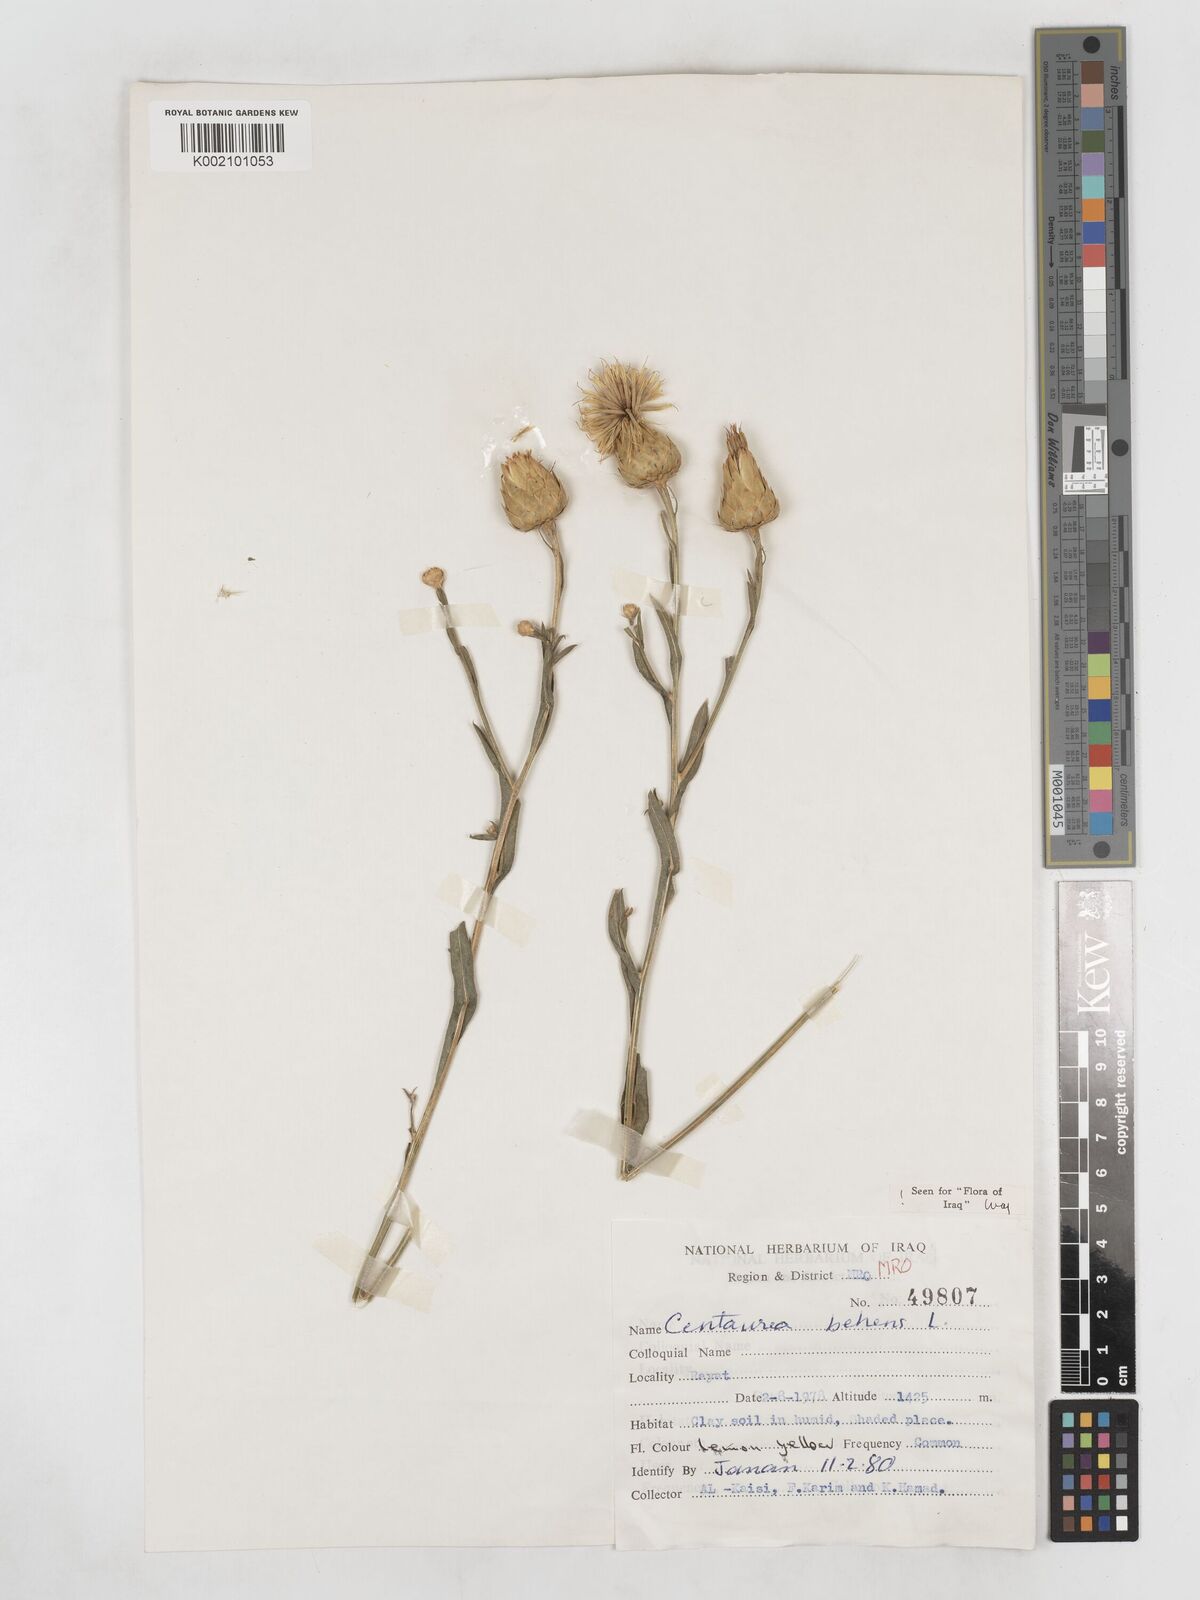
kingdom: Plantae
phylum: Tracheophyta
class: Magnoliopsida
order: Asterales
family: Asteraceae
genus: Centaurea
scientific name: Centaurea behen
